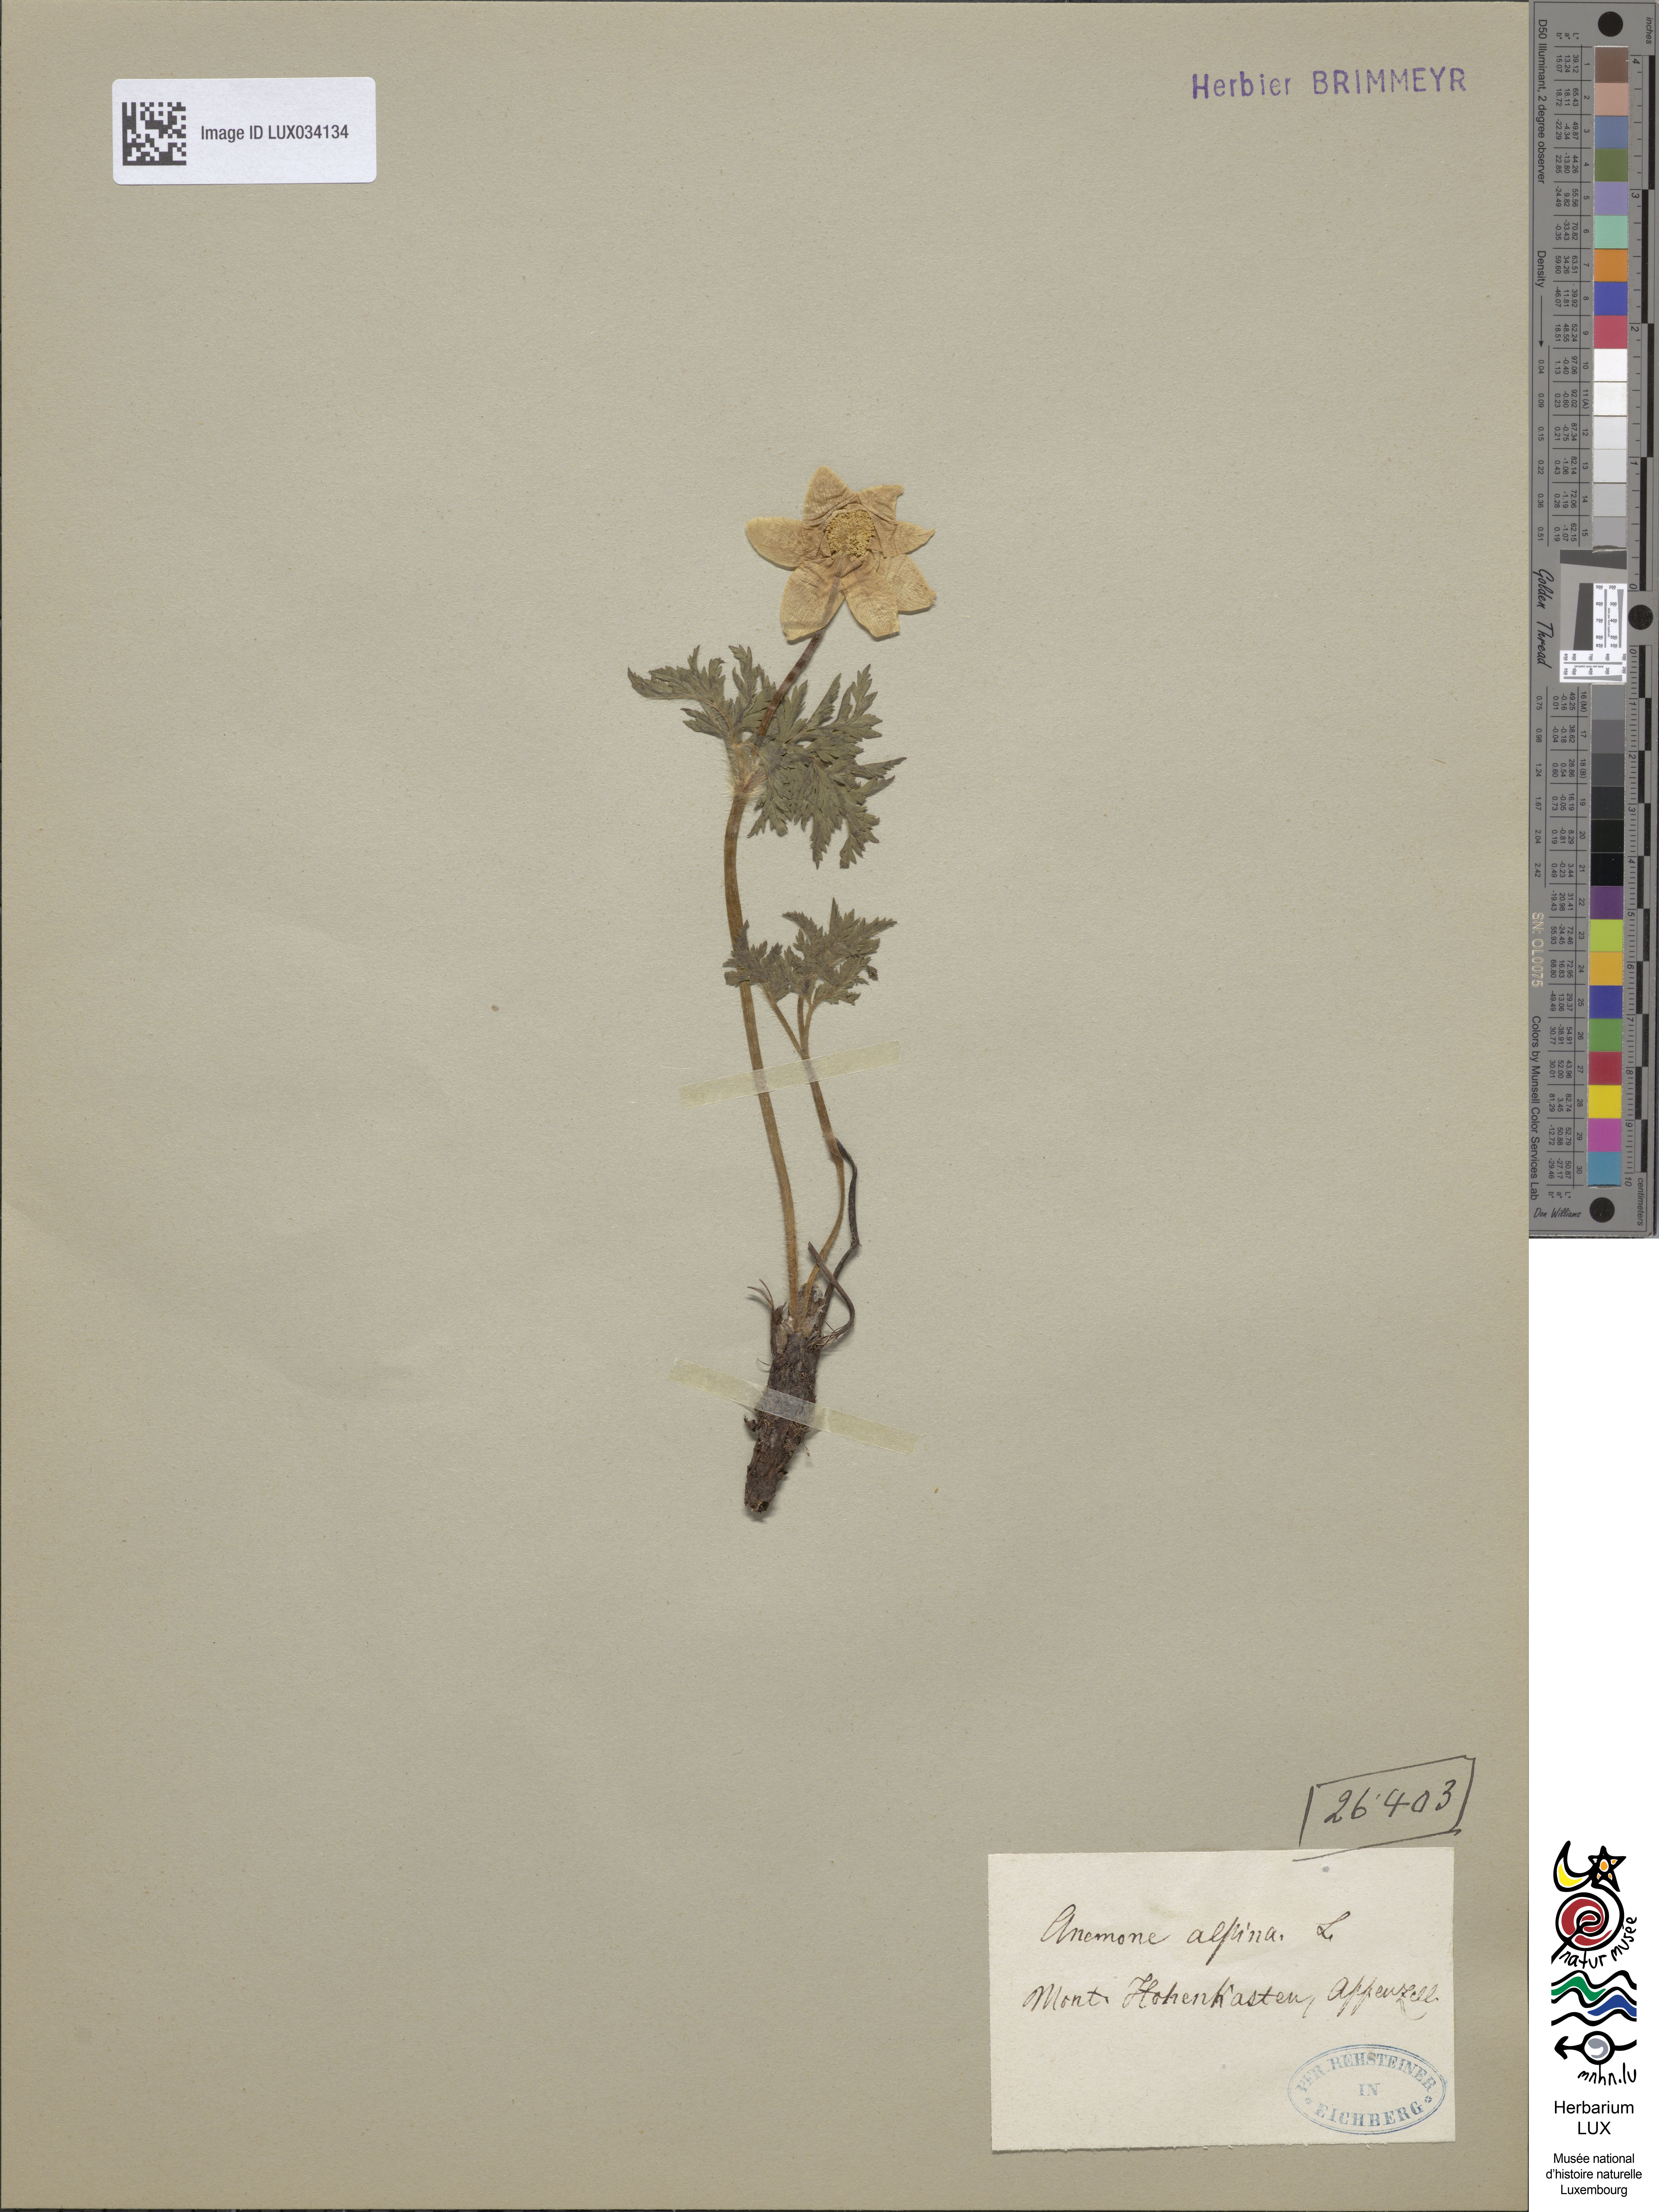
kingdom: Plantae
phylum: Tracheophyta
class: Magnoliopsida
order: Ranunculales
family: Ranunculaceae
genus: Pulsatilla
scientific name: Pulsatilla alpina
